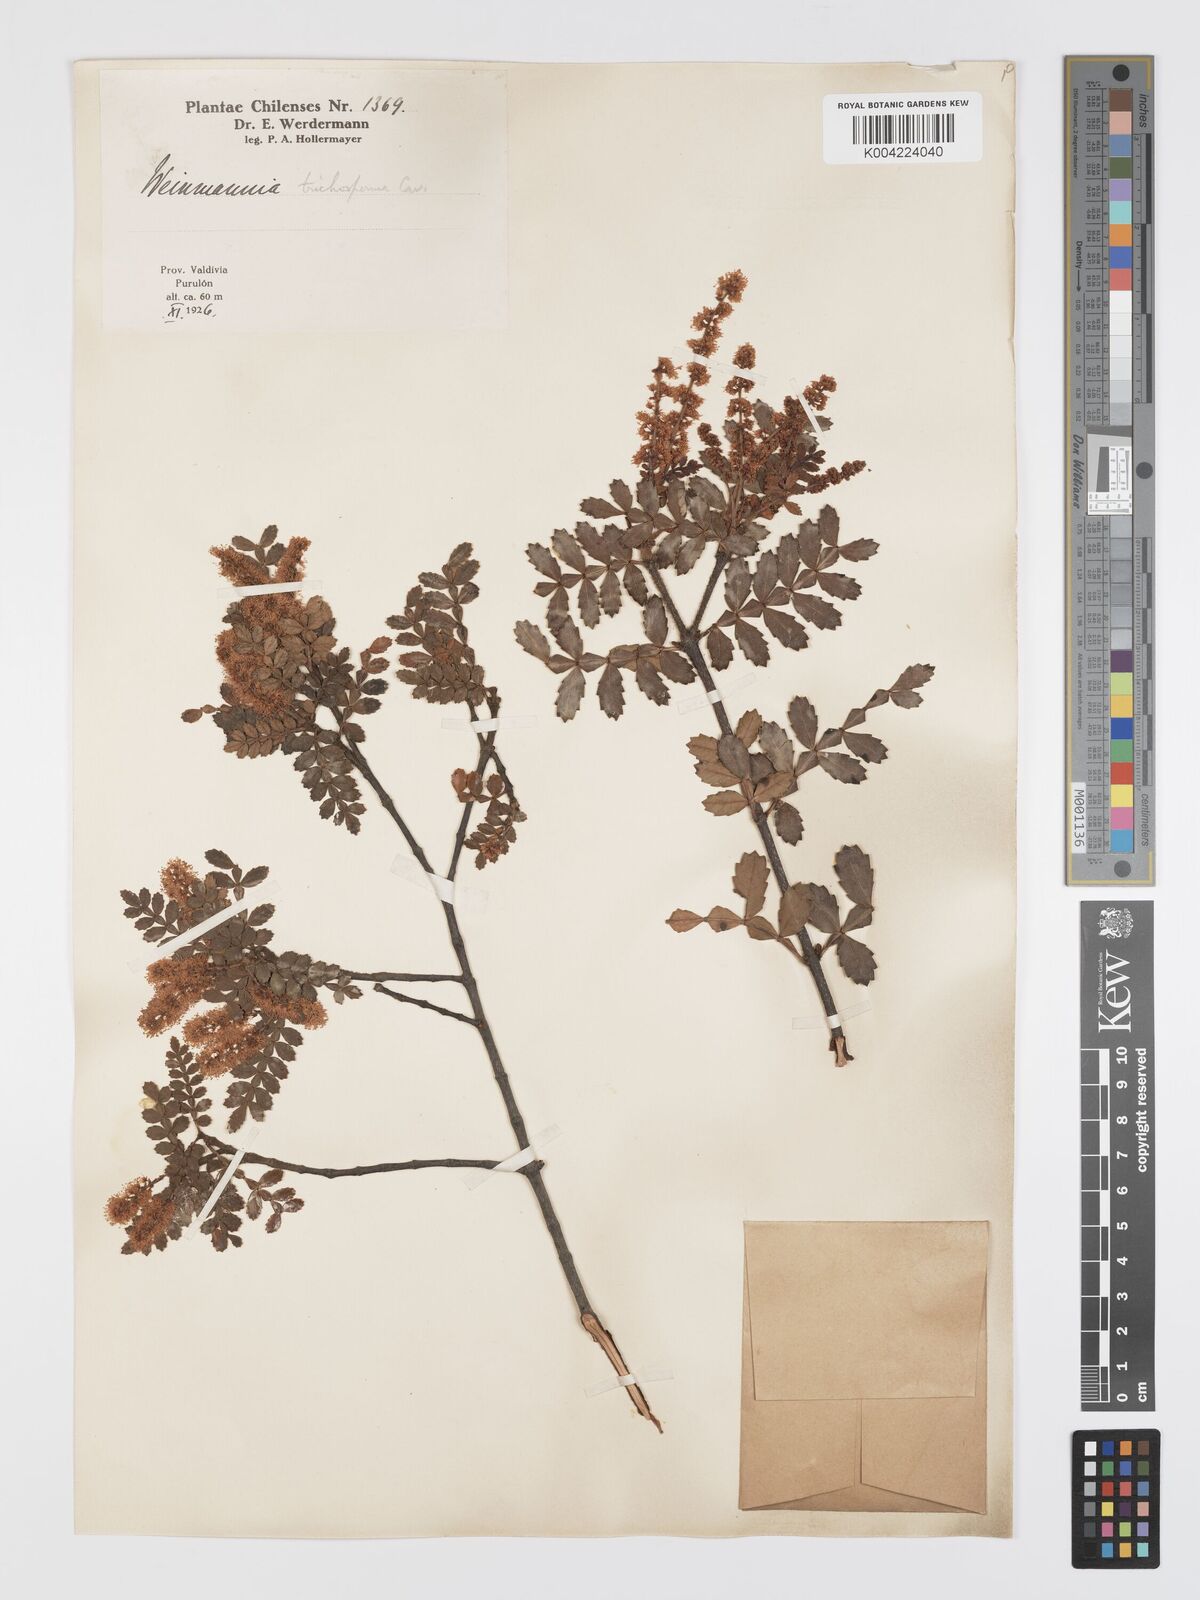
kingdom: Plantae
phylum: Tracheophyta
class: Magnoliopsida
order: Oxalidales
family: Cunoniaceae
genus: Weinmannia
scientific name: Weinmannia trichosperma
